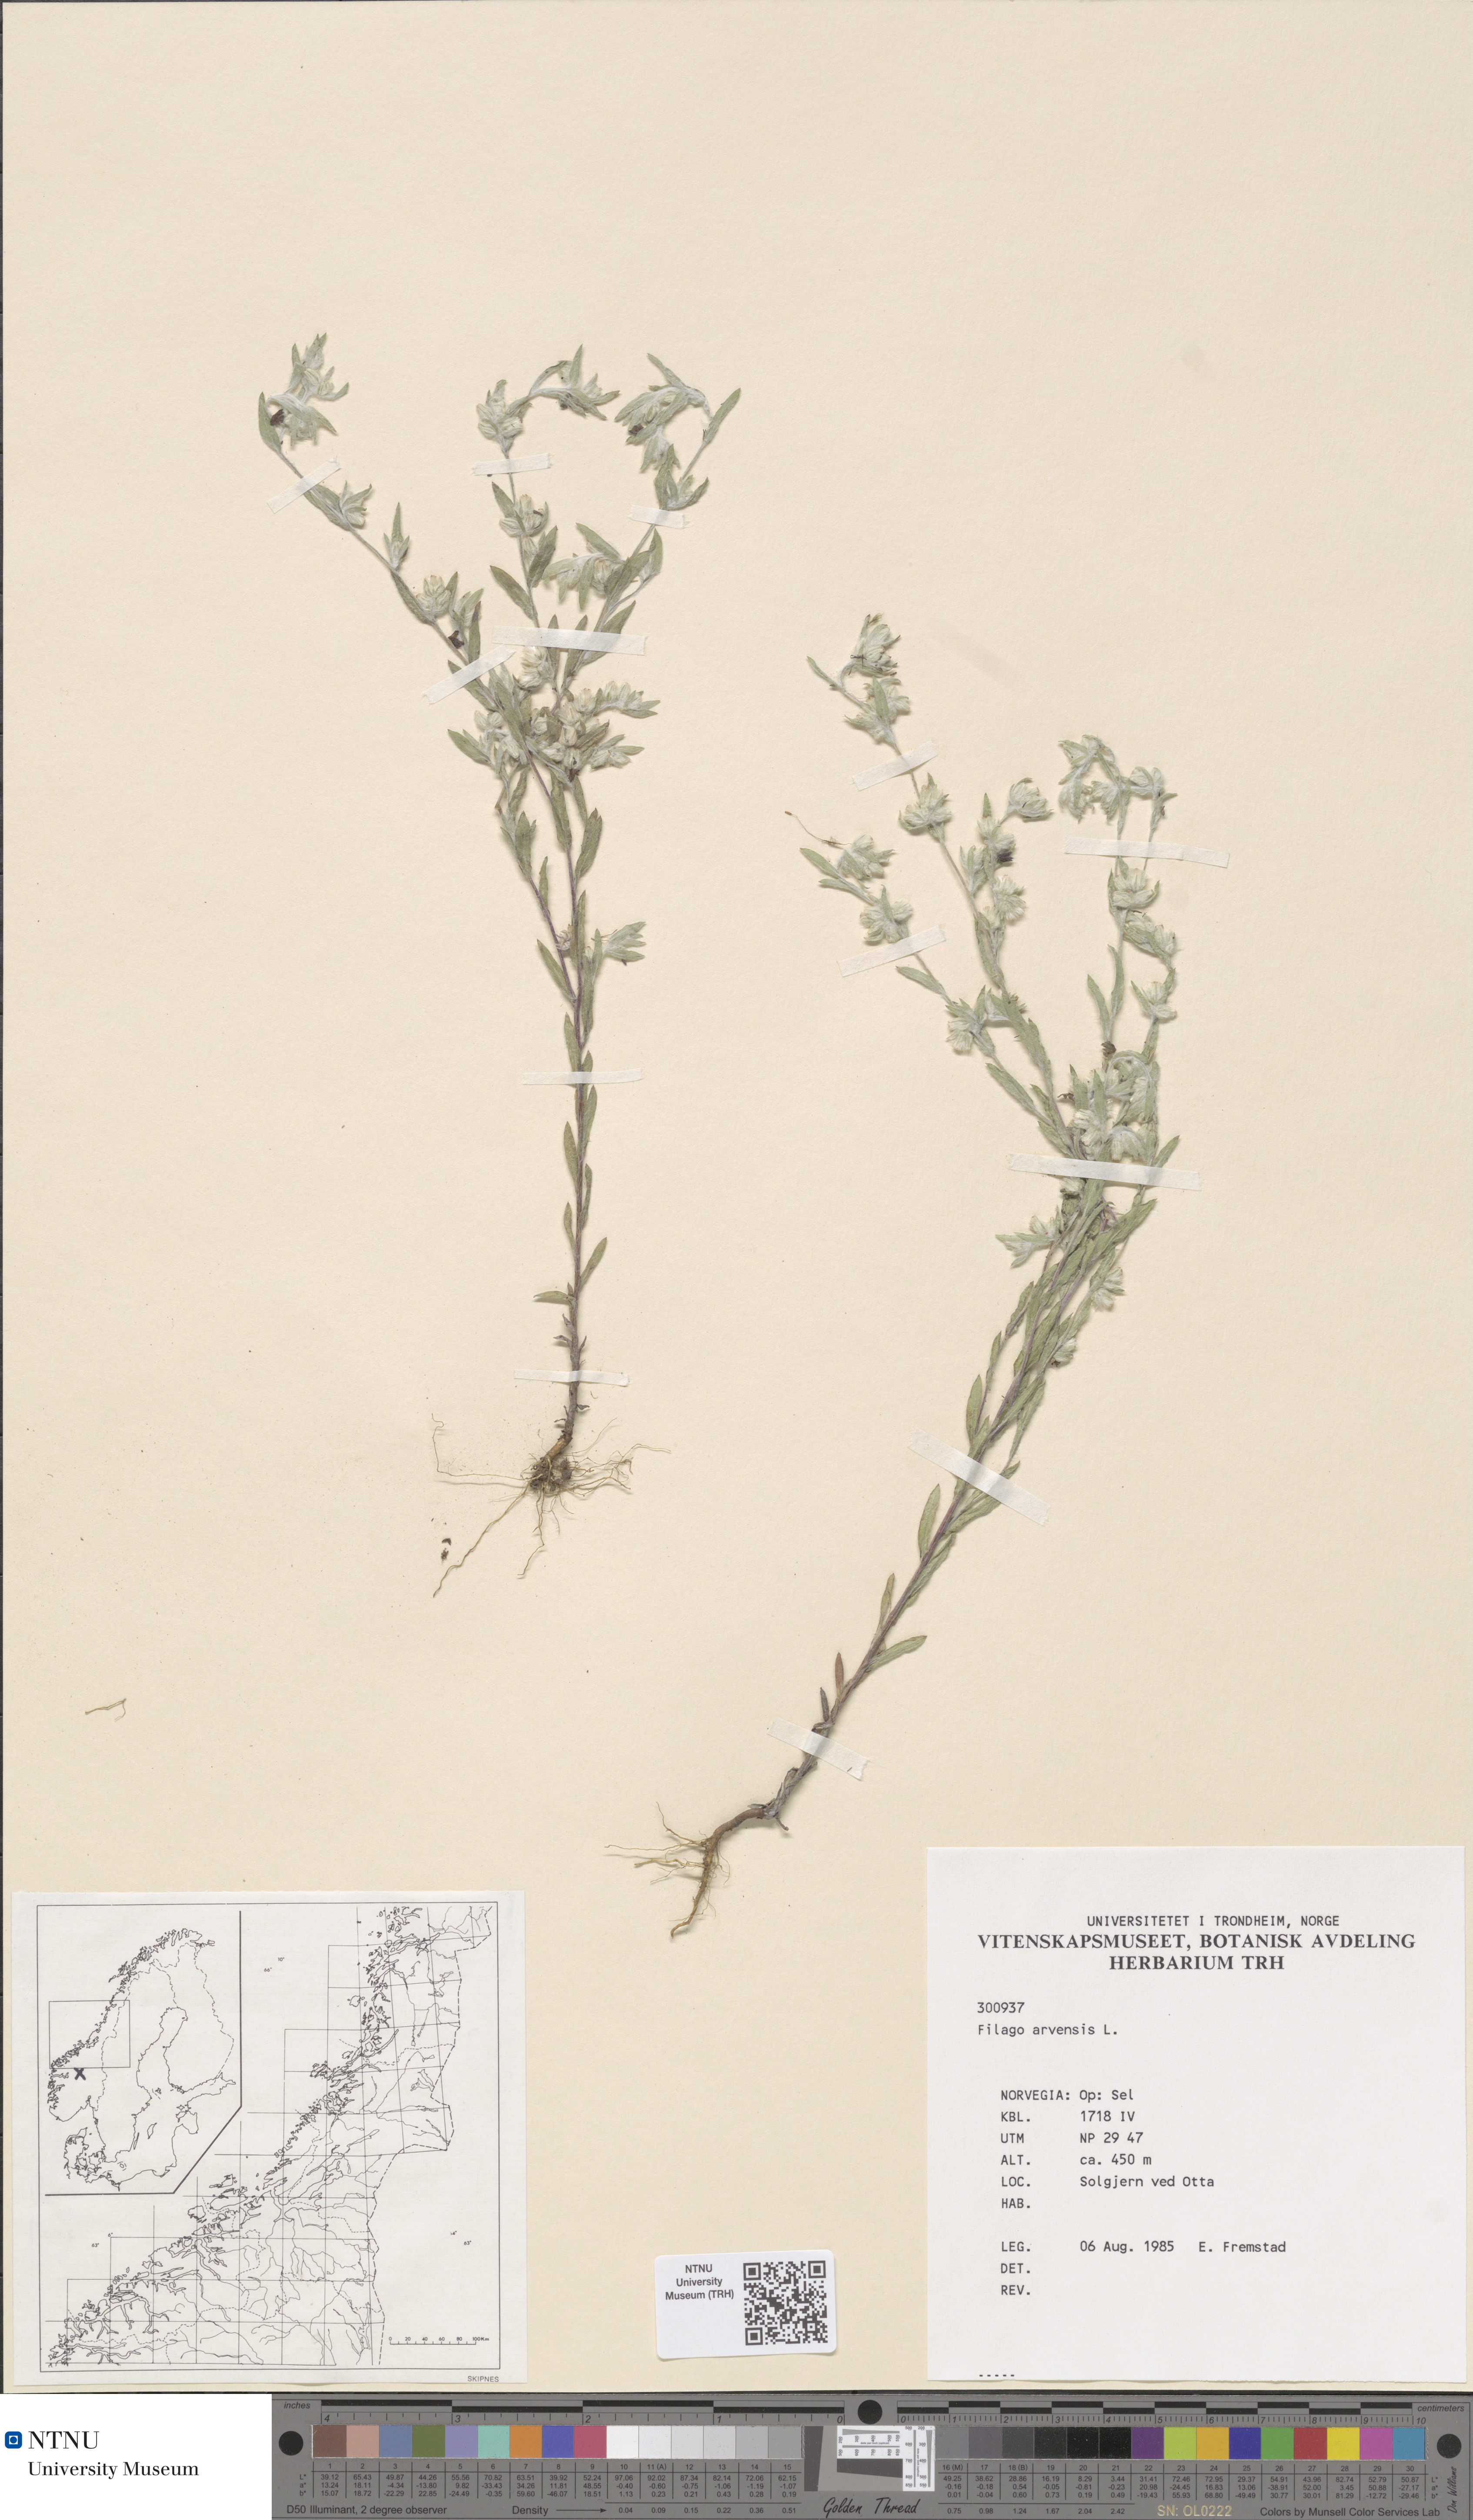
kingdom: Plantae
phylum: Tracheophyta
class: Magnoliopsida
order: Asterales
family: Asteraceae
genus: Filago
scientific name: Filago arvensis
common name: Field cudweed
